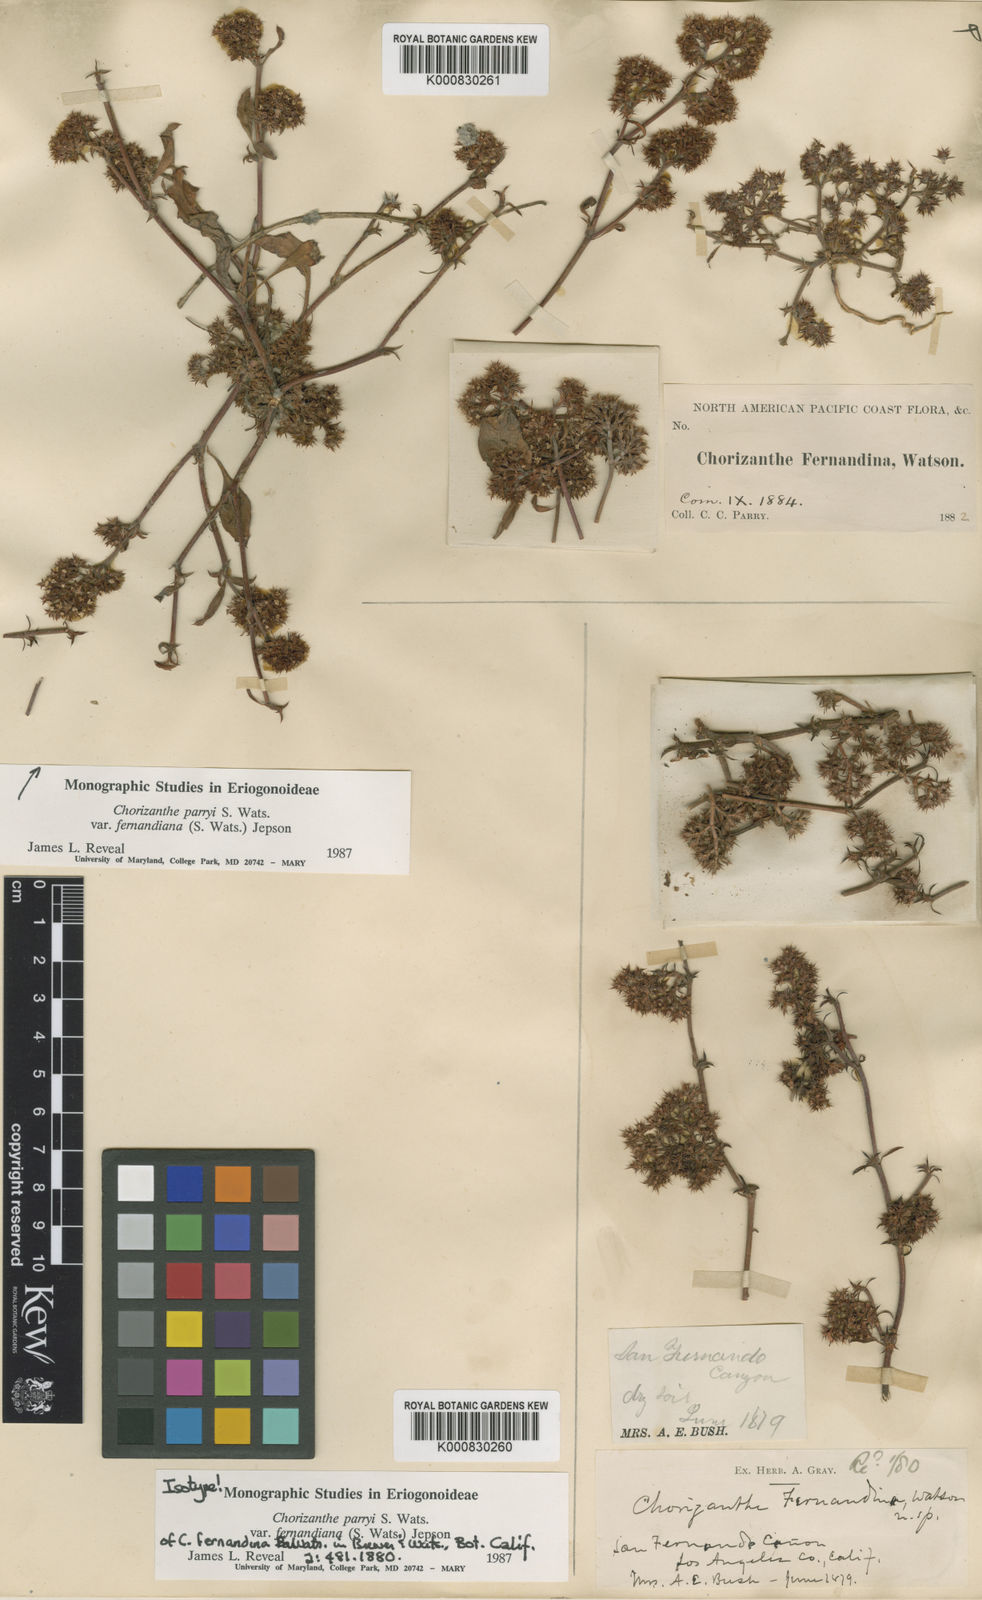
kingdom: Plantae
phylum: Tracheophyta
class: Magnoliopsida
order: Caryophyllales
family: Polygonaceae
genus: Chorizanthe
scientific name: Chorizanthe parryi
